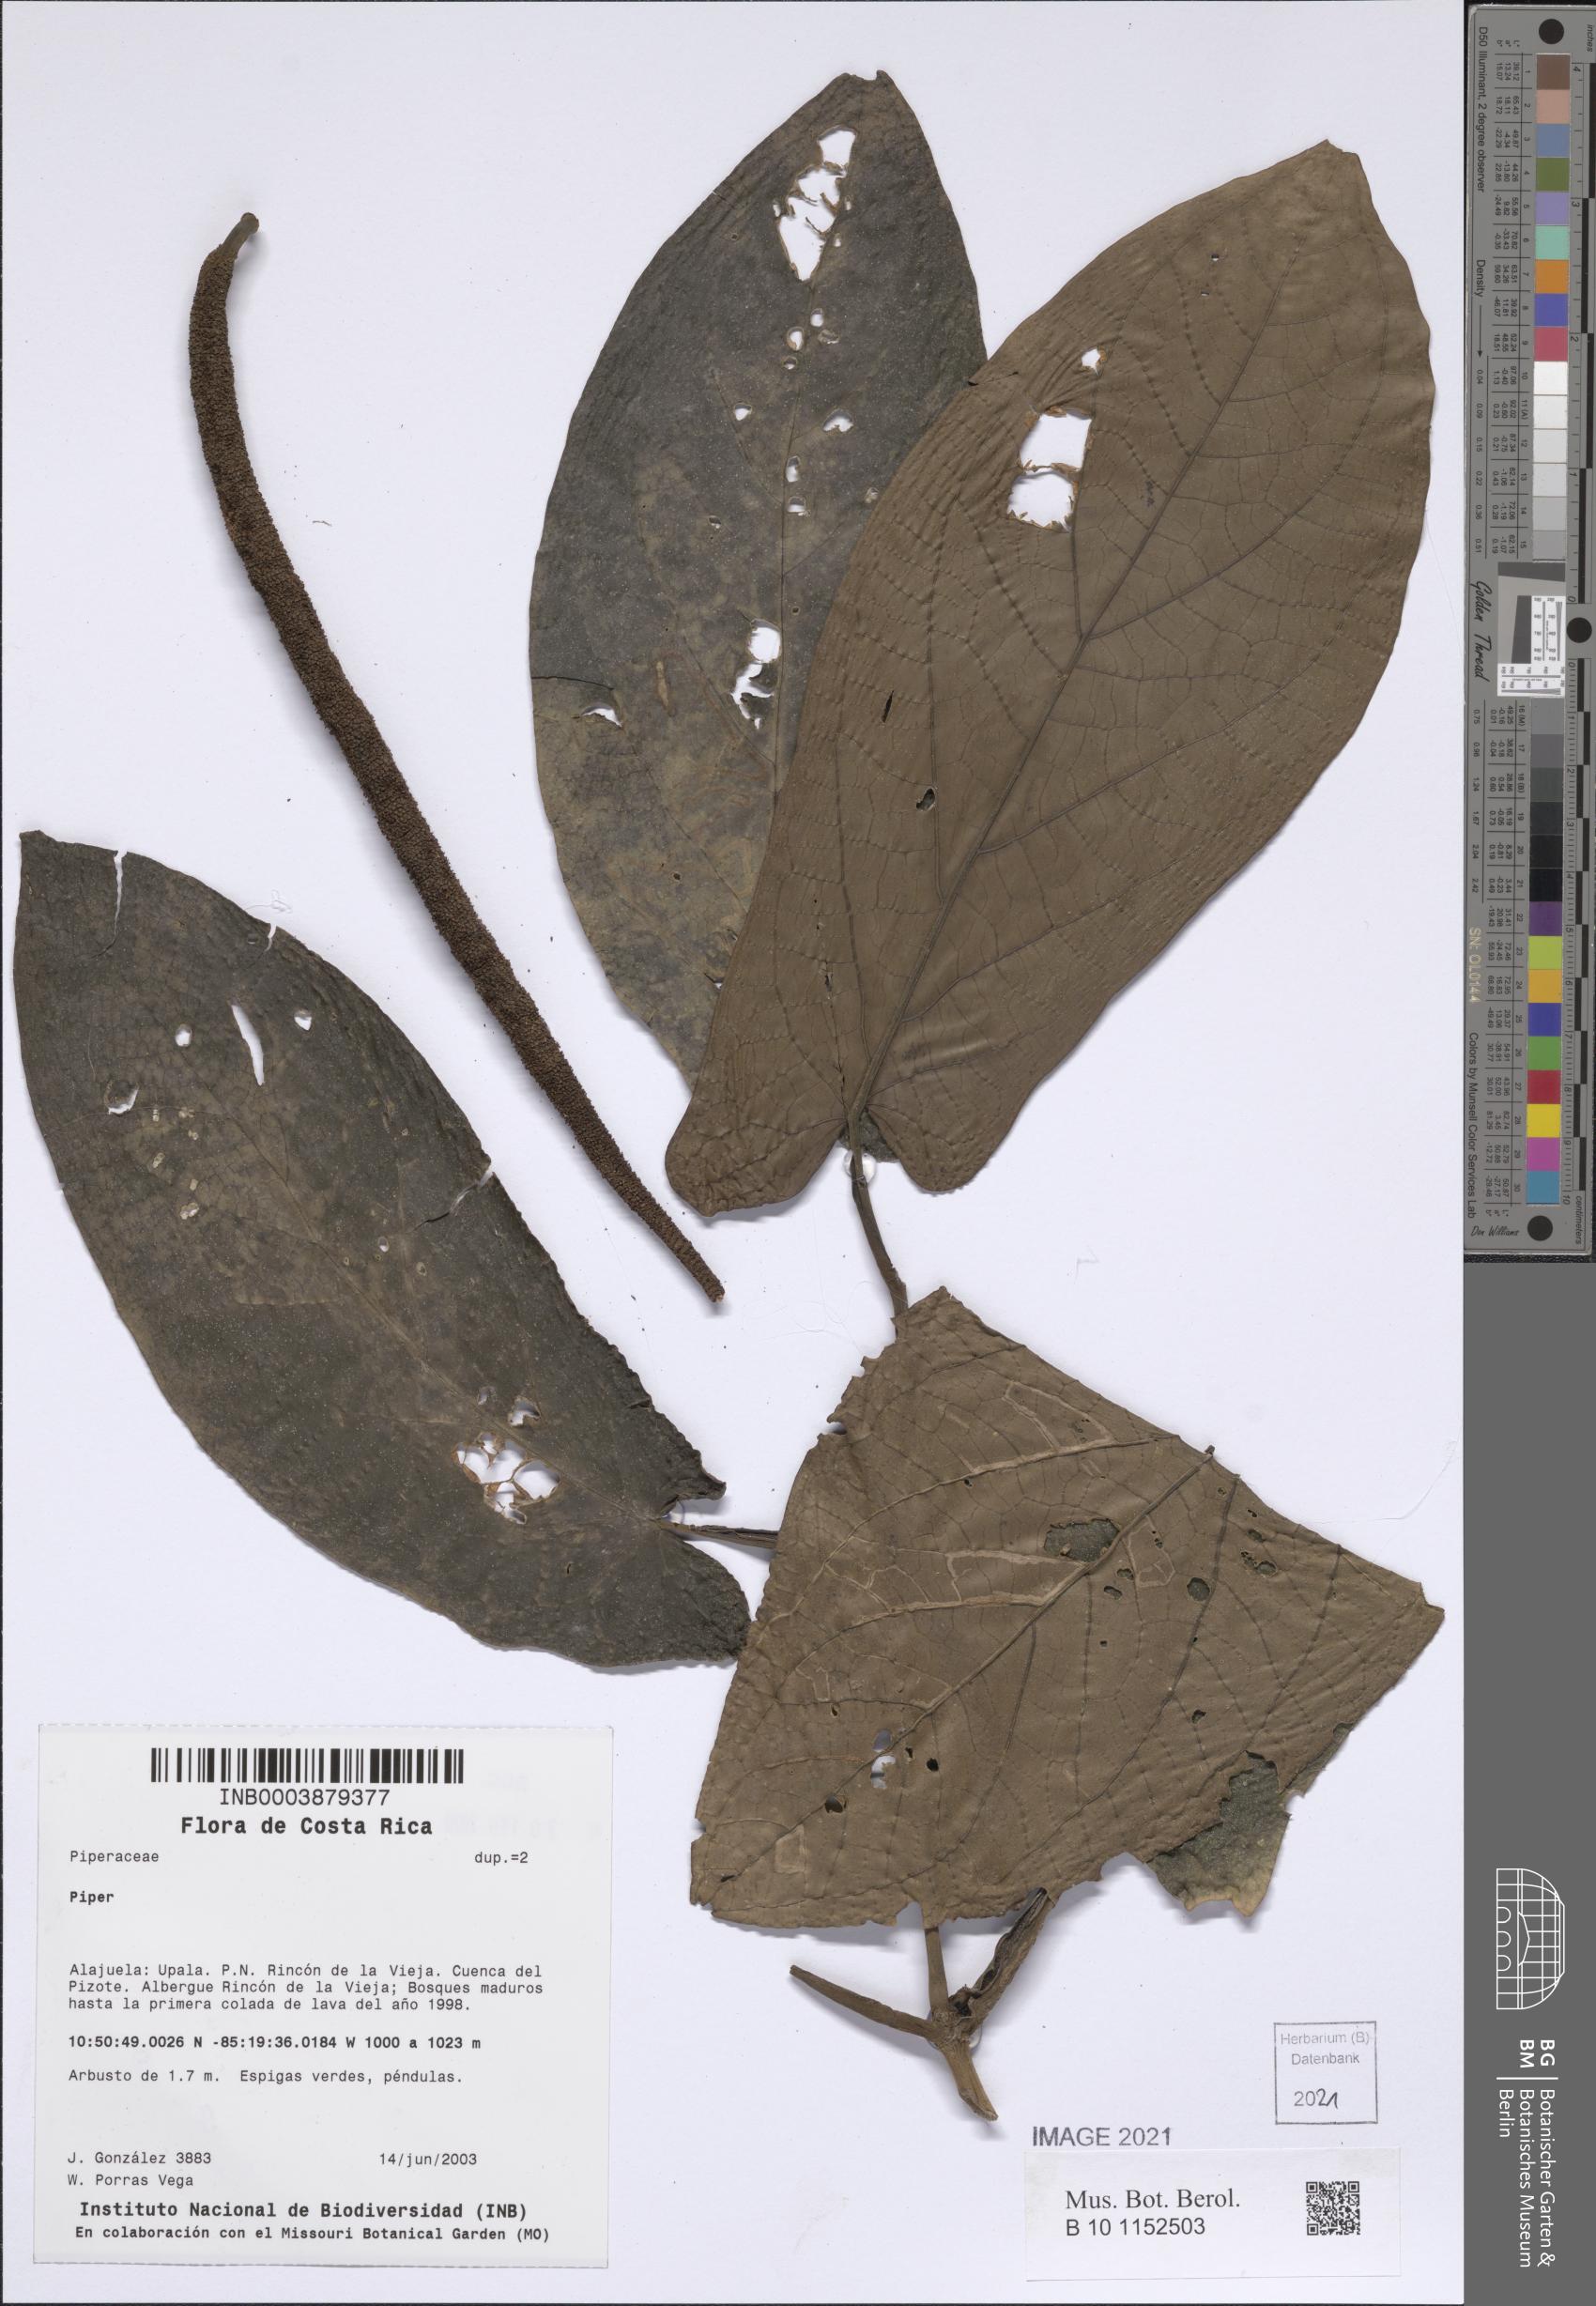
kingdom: Plantae
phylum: Tracheophyta
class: Magnoliopsida
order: Piperales
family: Piperaceae
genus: Piper
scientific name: Piper
